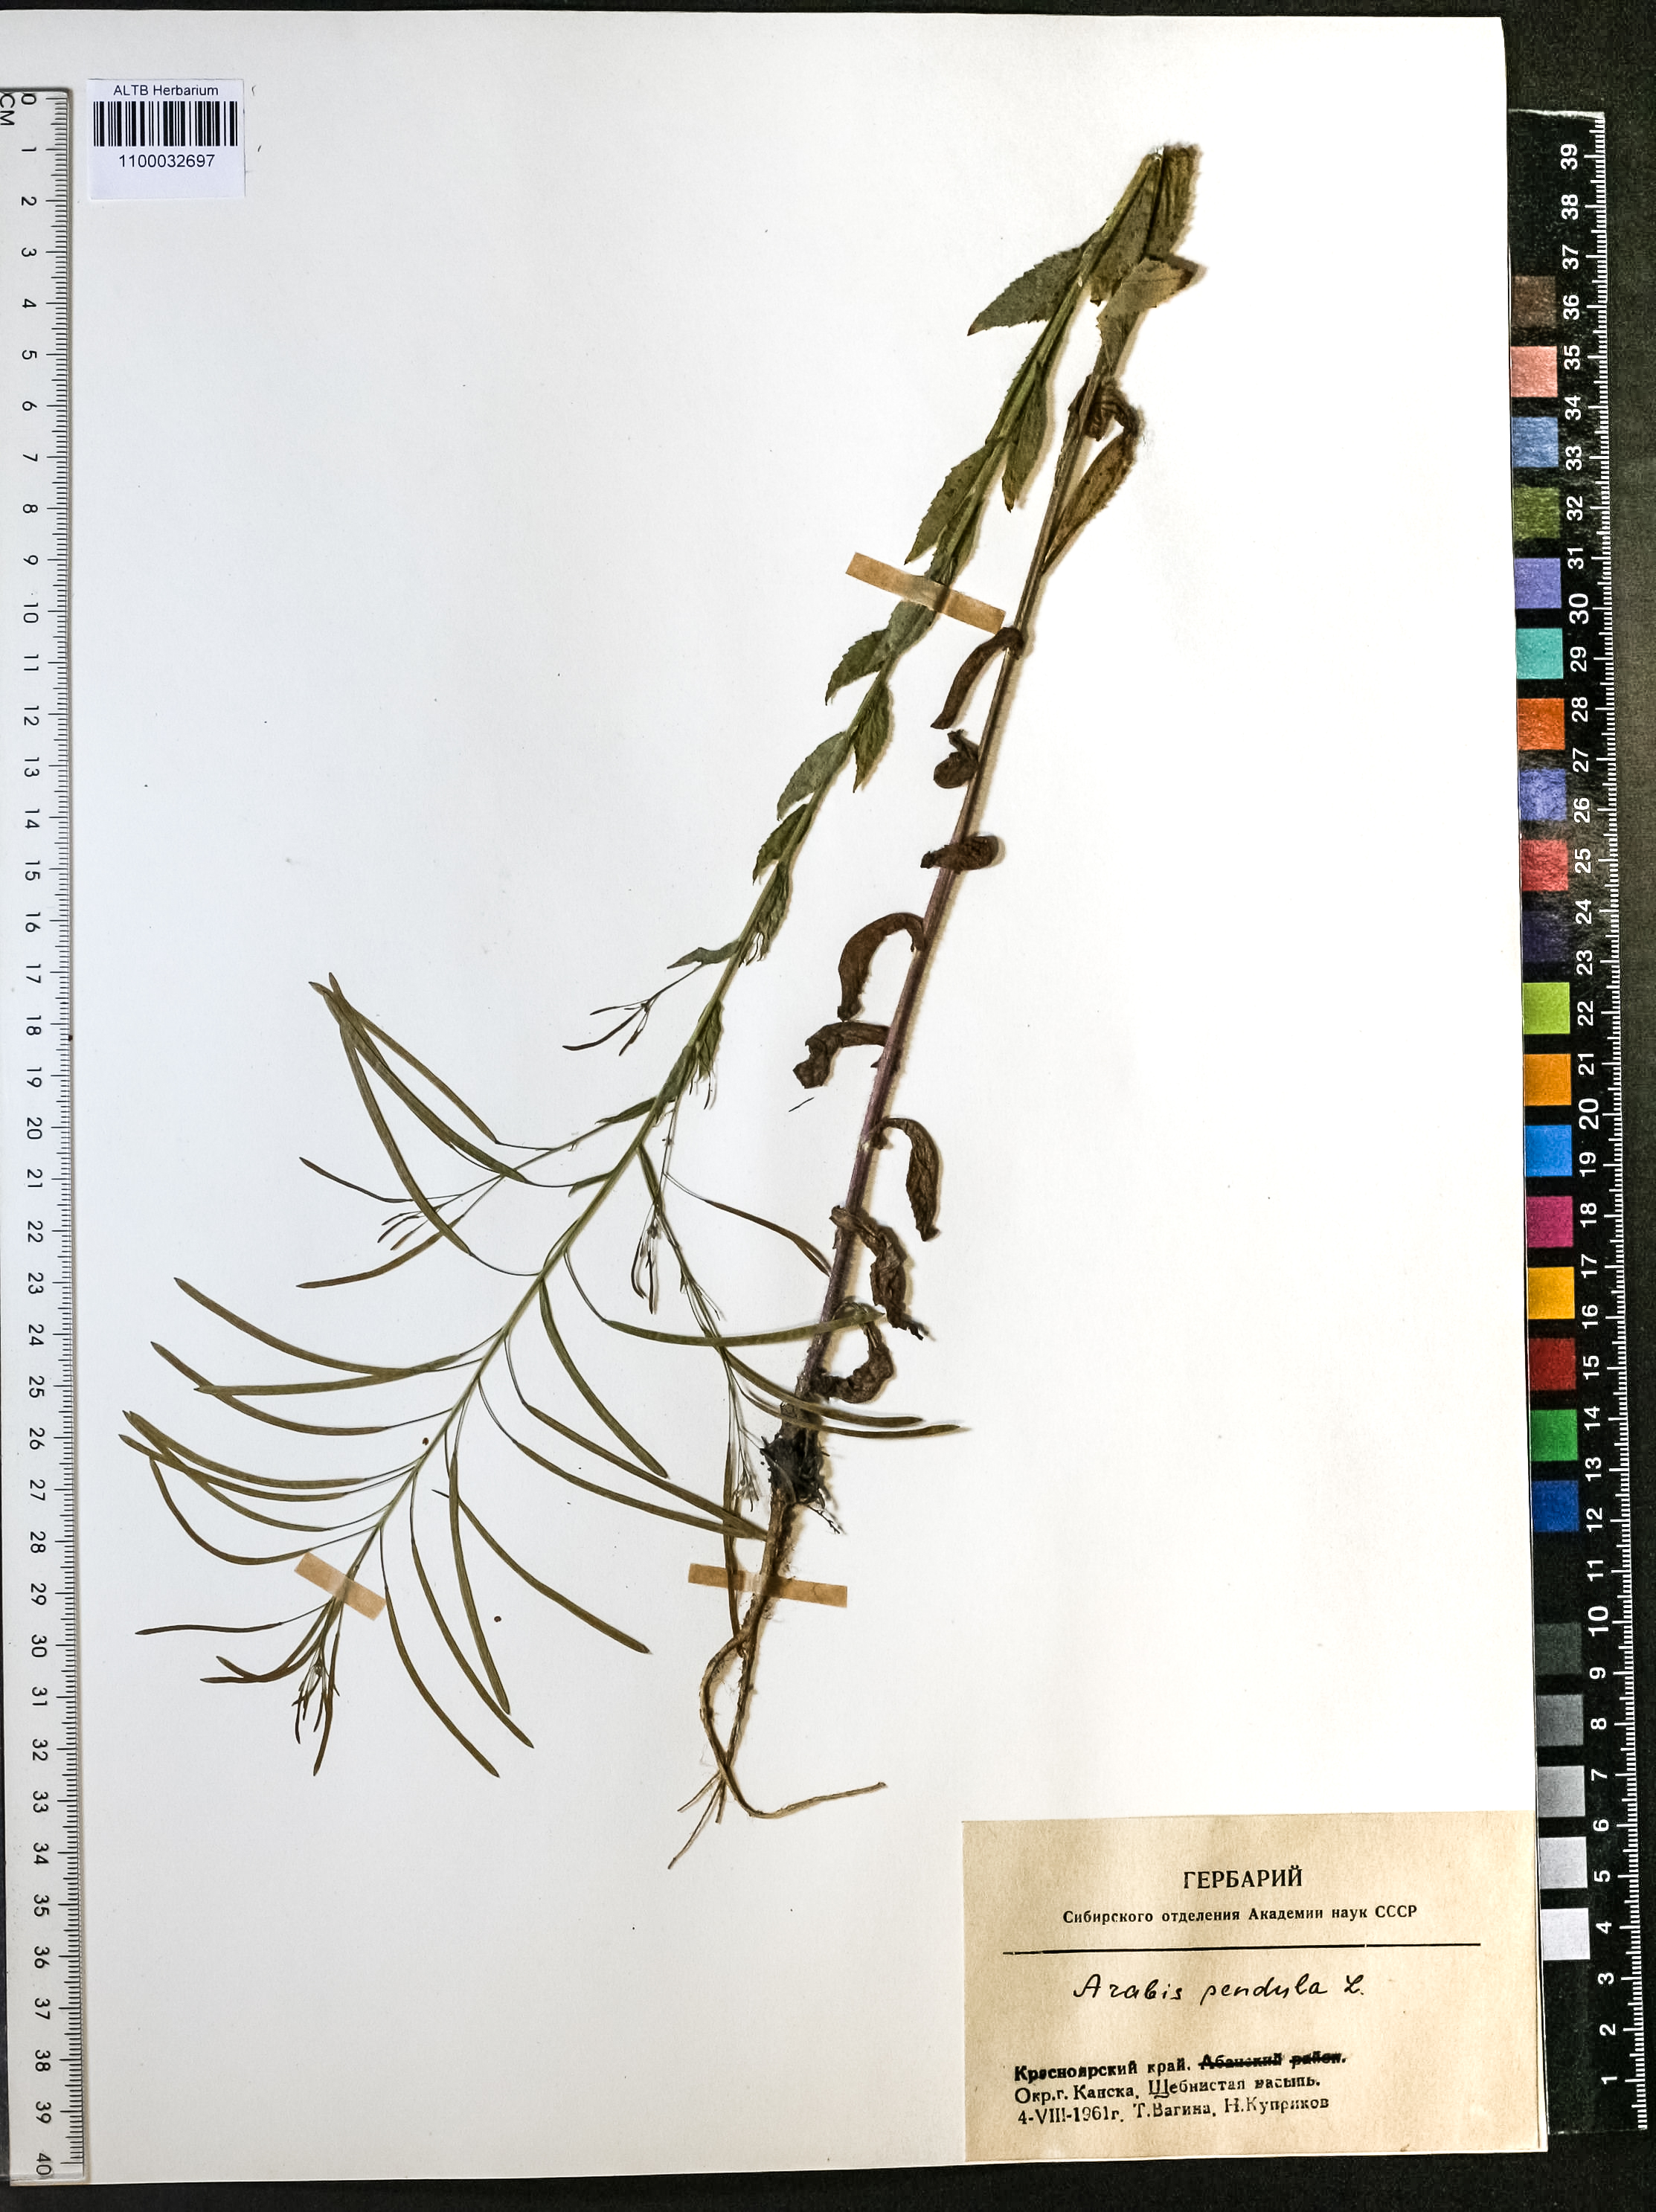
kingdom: Plantae
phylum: Tracheophyta
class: Magnoliopsida
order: Brassicales
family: Brassicaceae
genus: Catolobus
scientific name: Catolobus pendulus
